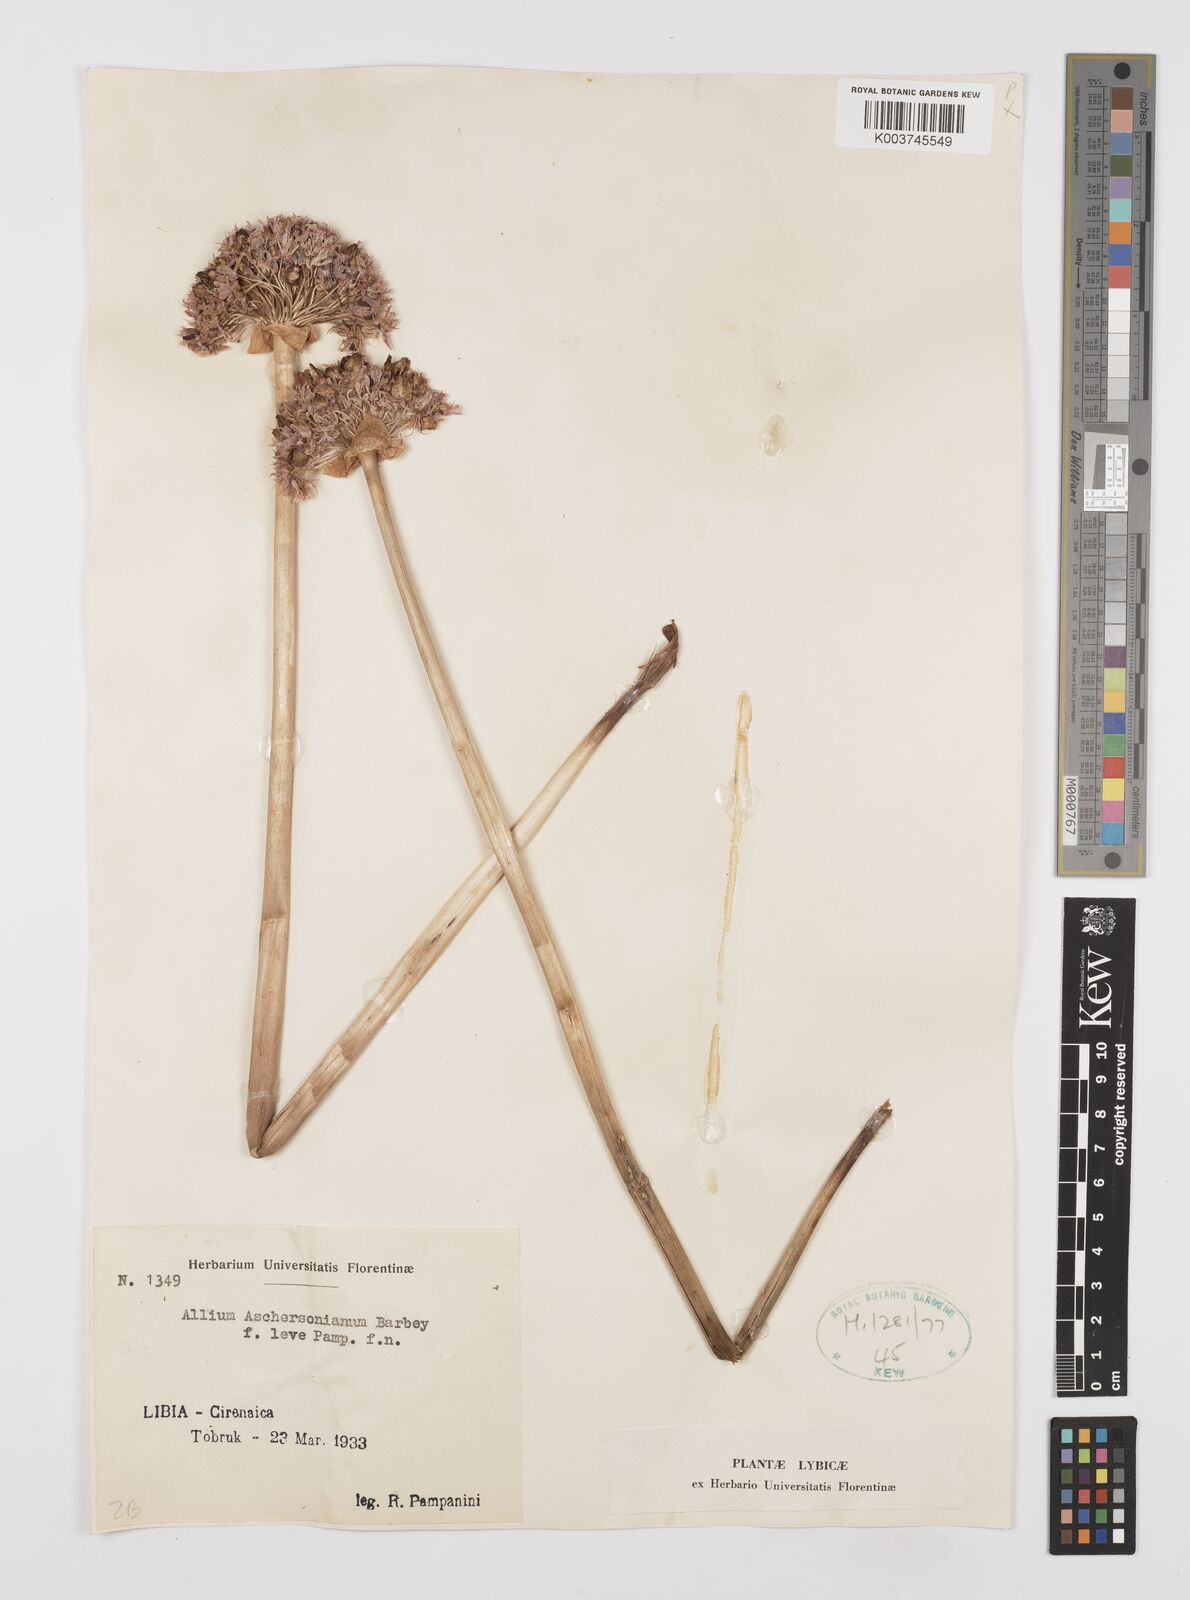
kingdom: Plantae
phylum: Tracheophyta
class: Liliopsida
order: Asparagales
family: Amaryllidaceae
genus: Allium
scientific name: Allium orientale
